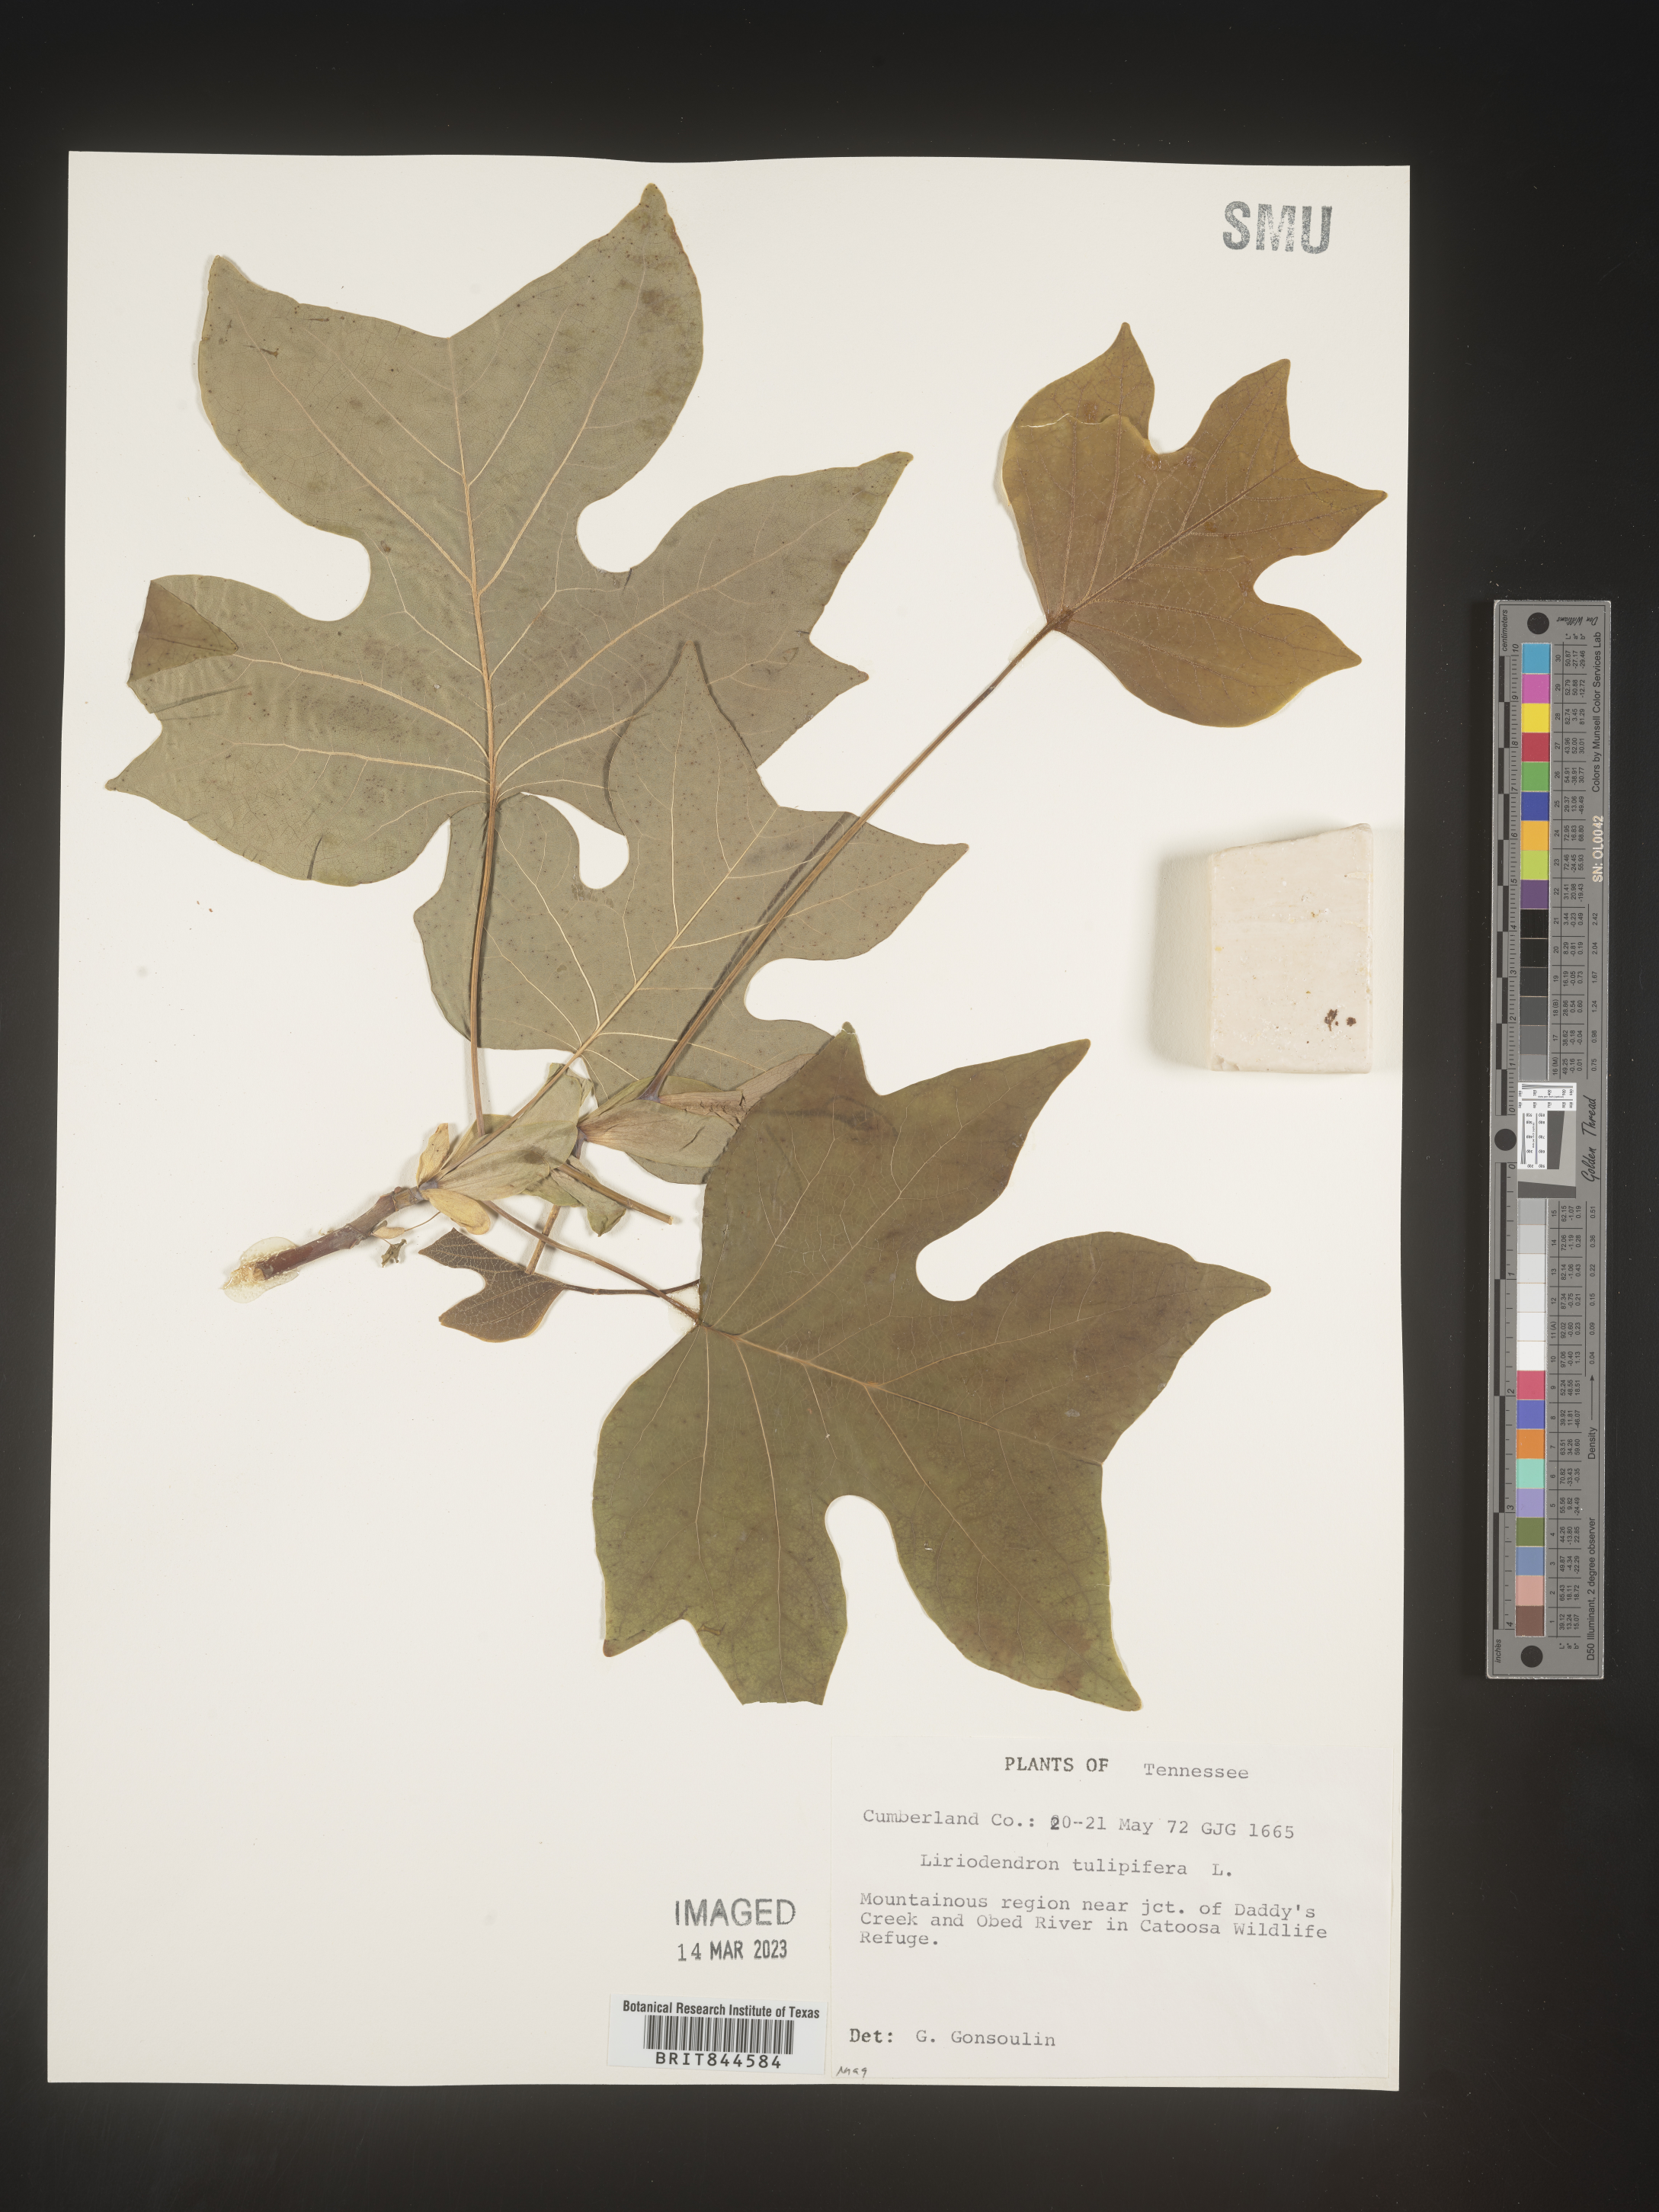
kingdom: Plantae
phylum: Tracheophyta
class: Magnoliopsida
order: Magnoliales
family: Magnoliaceae
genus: Liriodendron
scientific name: Liriodendron tulipifera
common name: Tulip tree
